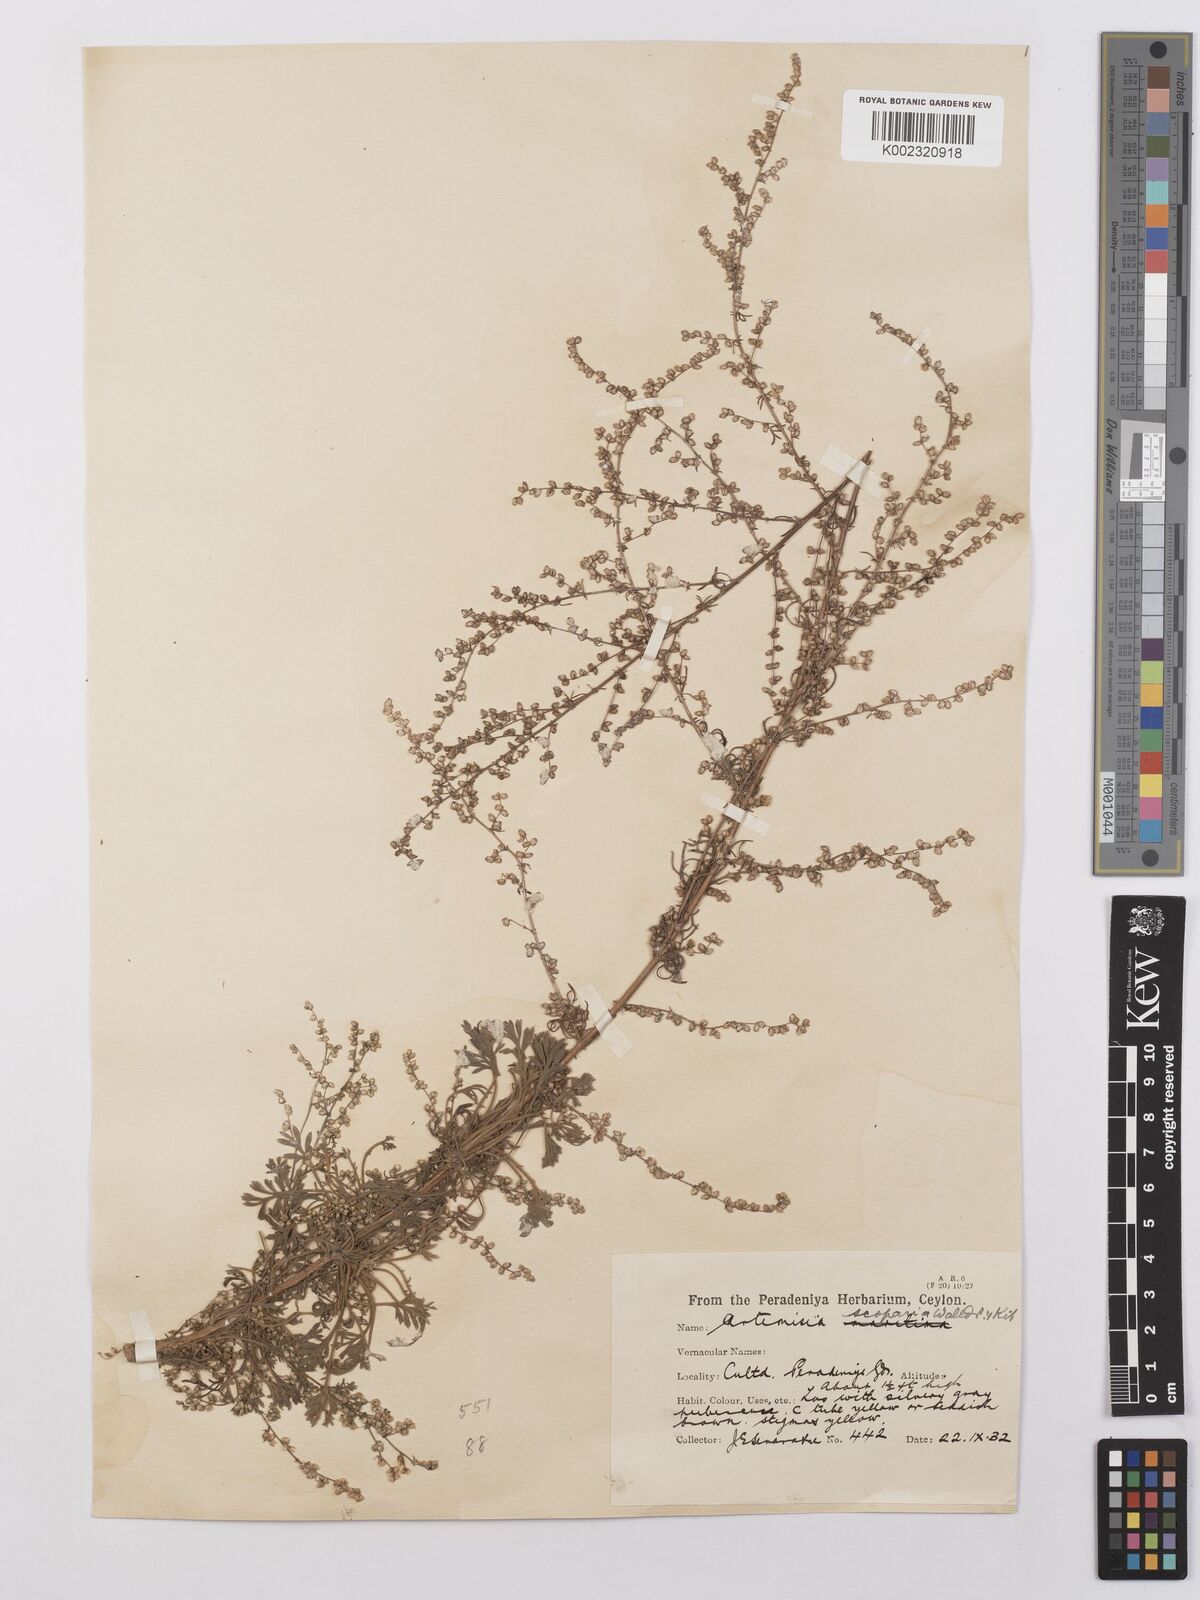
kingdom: Plantae
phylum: Tracheophyta
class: Magnoliopsida
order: Asterales
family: Asteraceae
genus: Artemisia
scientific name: Artemisia scoparia
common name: Redstem wormwood
